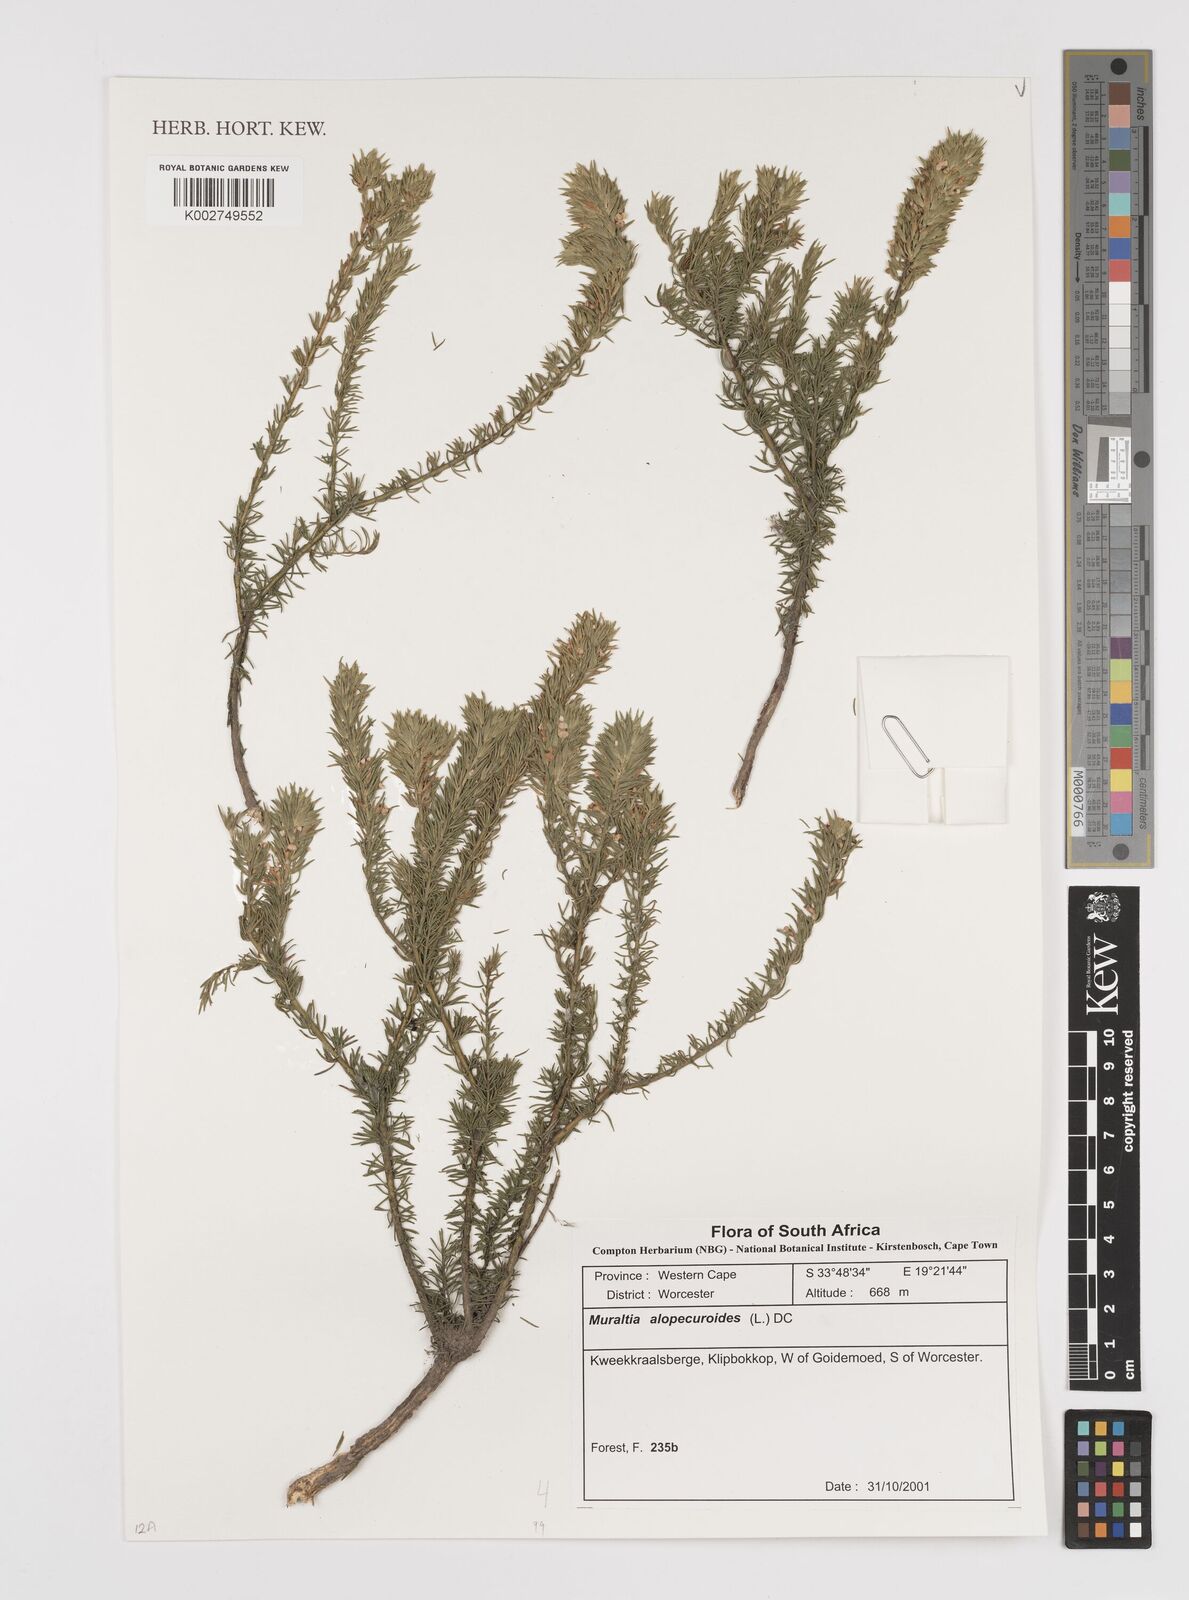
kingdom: Plantae
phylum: Tracheophyta
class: Magnoliopsida
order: Fabales
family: Polygalaceae
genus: Muraltia
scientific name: Muraltia alopecuroides
